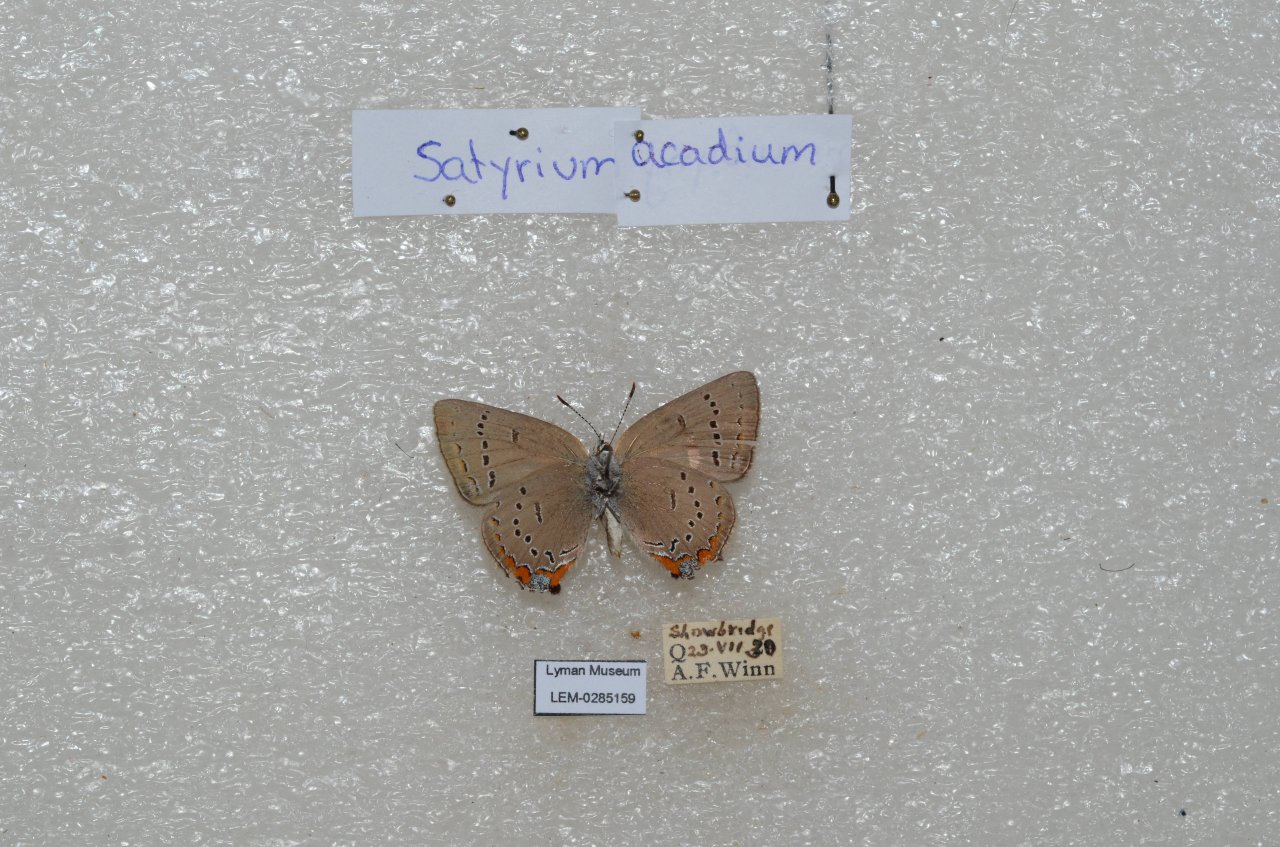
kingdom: Animalia
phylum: Arthropoda
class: Insecta
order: Lepidoptera
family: Lycaenidae
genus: Strymon
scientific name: Strymon acadica
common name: Acadian Hairstreak
